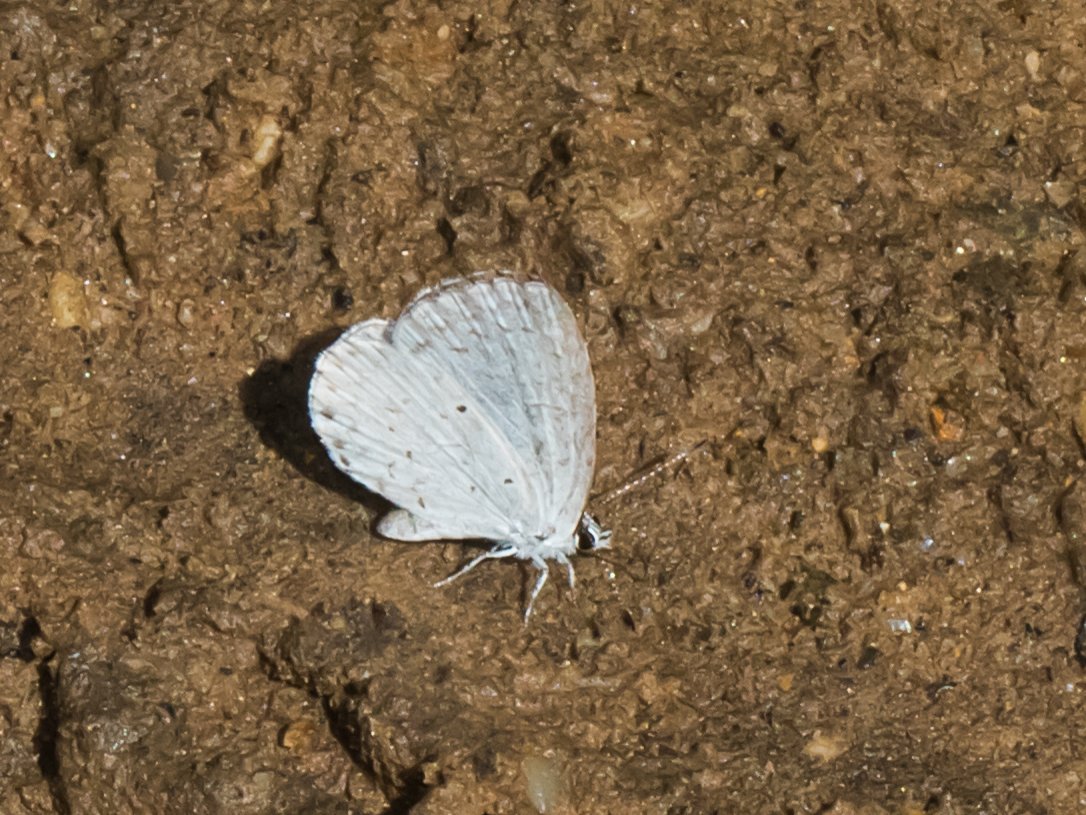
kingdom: Animalia
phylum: Arthropoda
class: Insecta
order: Lepidoptera
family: Lycaenidae
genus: Cyaniris
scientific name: Cyaniris neglecta
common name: Summer Azure
